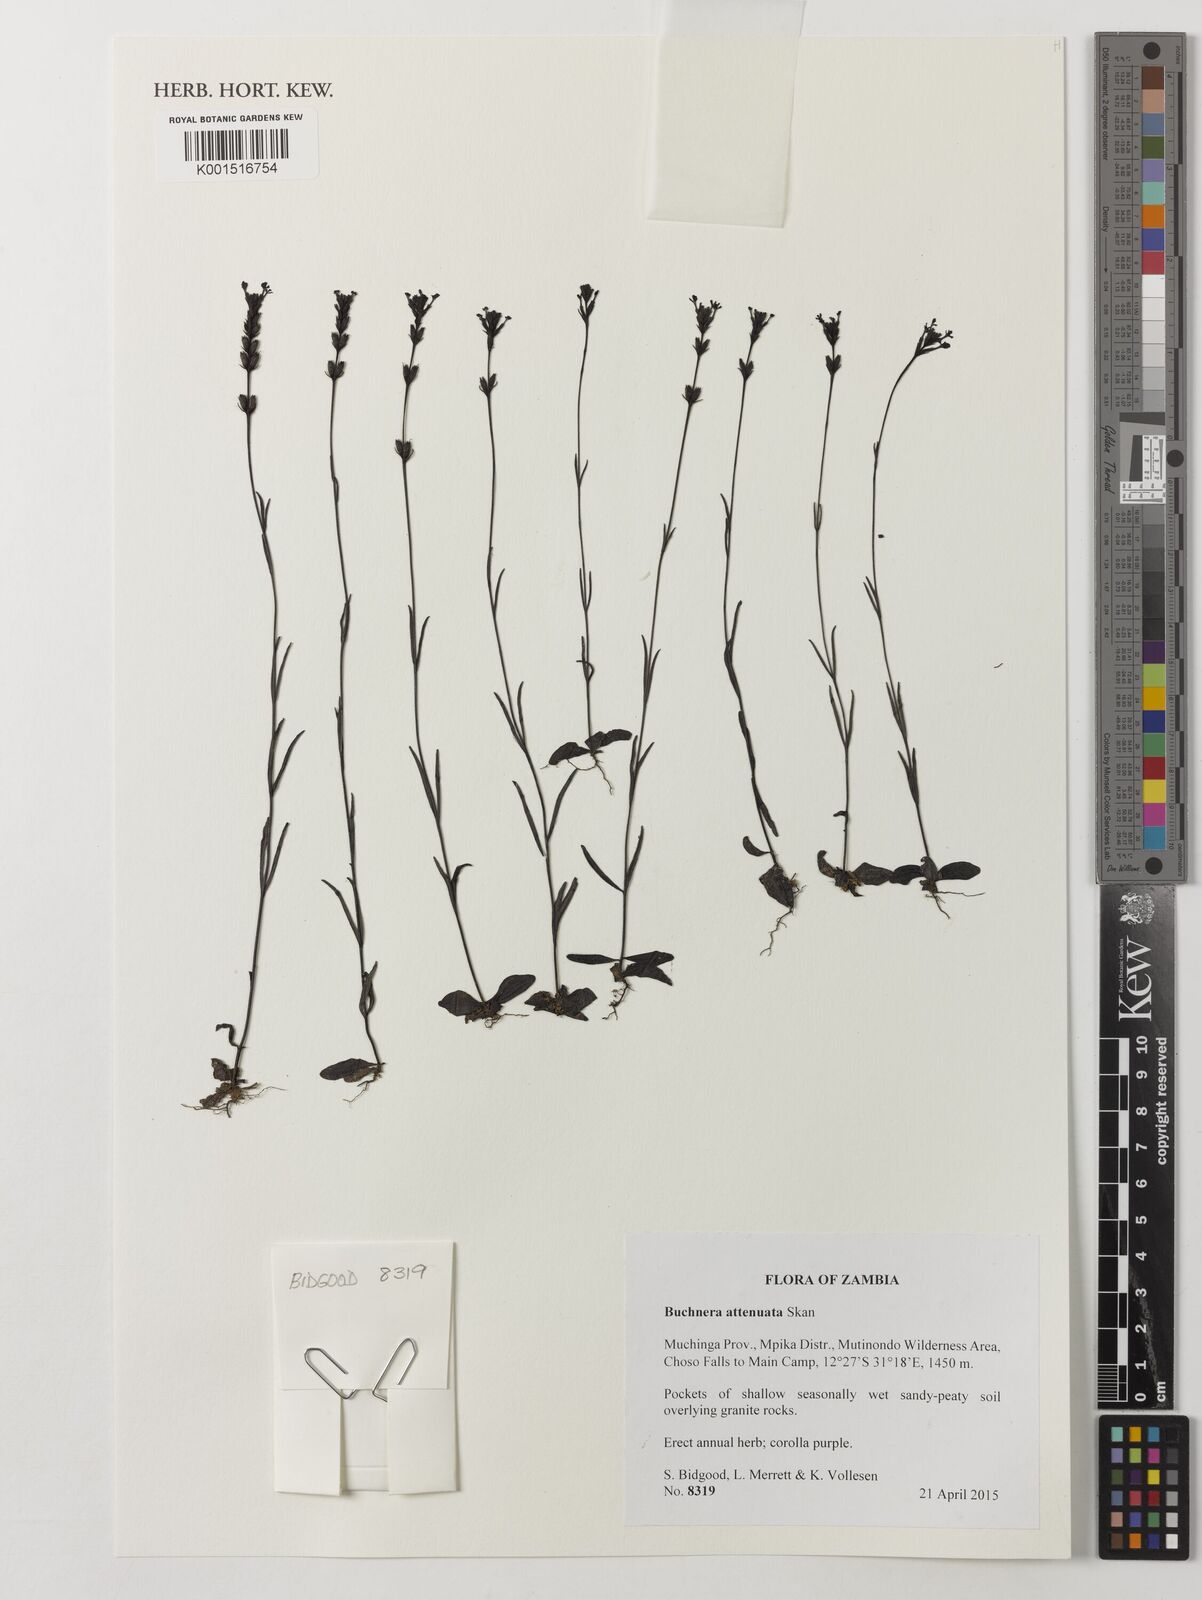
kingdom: Plantae
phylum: Tracheophyta
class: Magnoliopsida
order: Lamiales
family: Orobanchaceae
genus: Buchnera
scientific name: Buchnera attenuata
